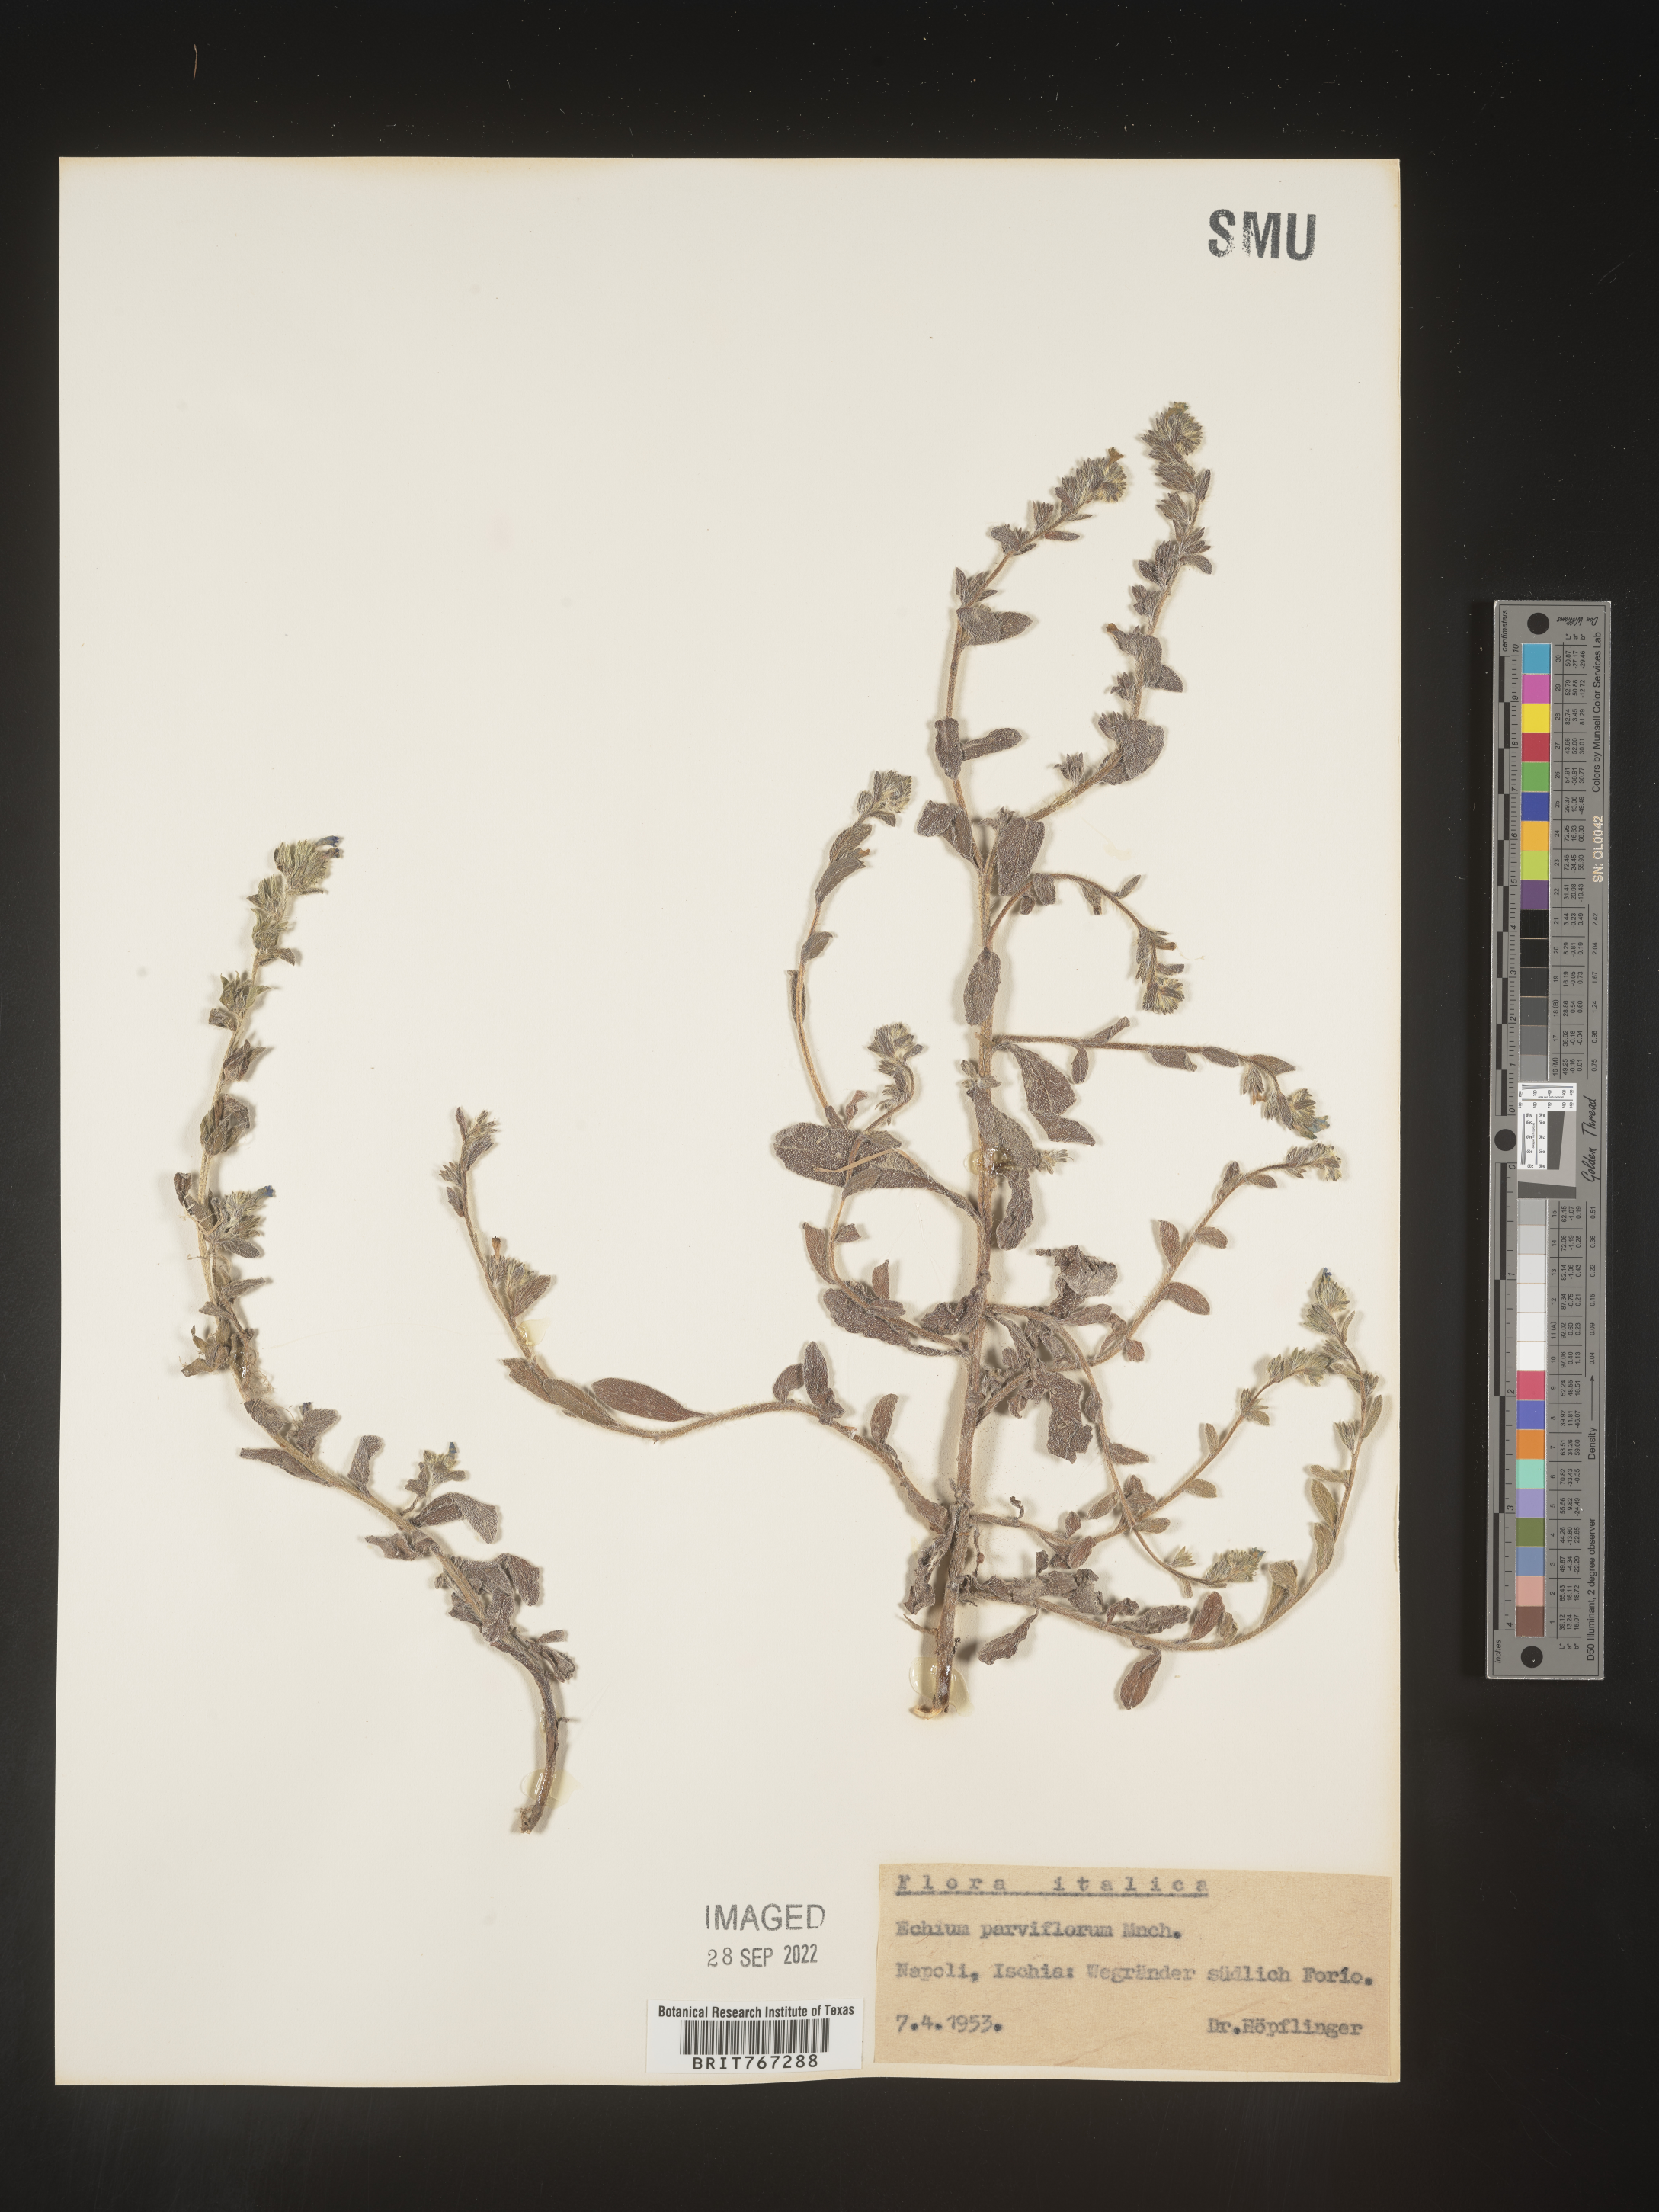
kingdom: Plantae
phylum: Tracheophyta
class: Magnoliopsida
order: Boraginales
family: Boraginaceae
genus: Echium
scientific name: Echium
